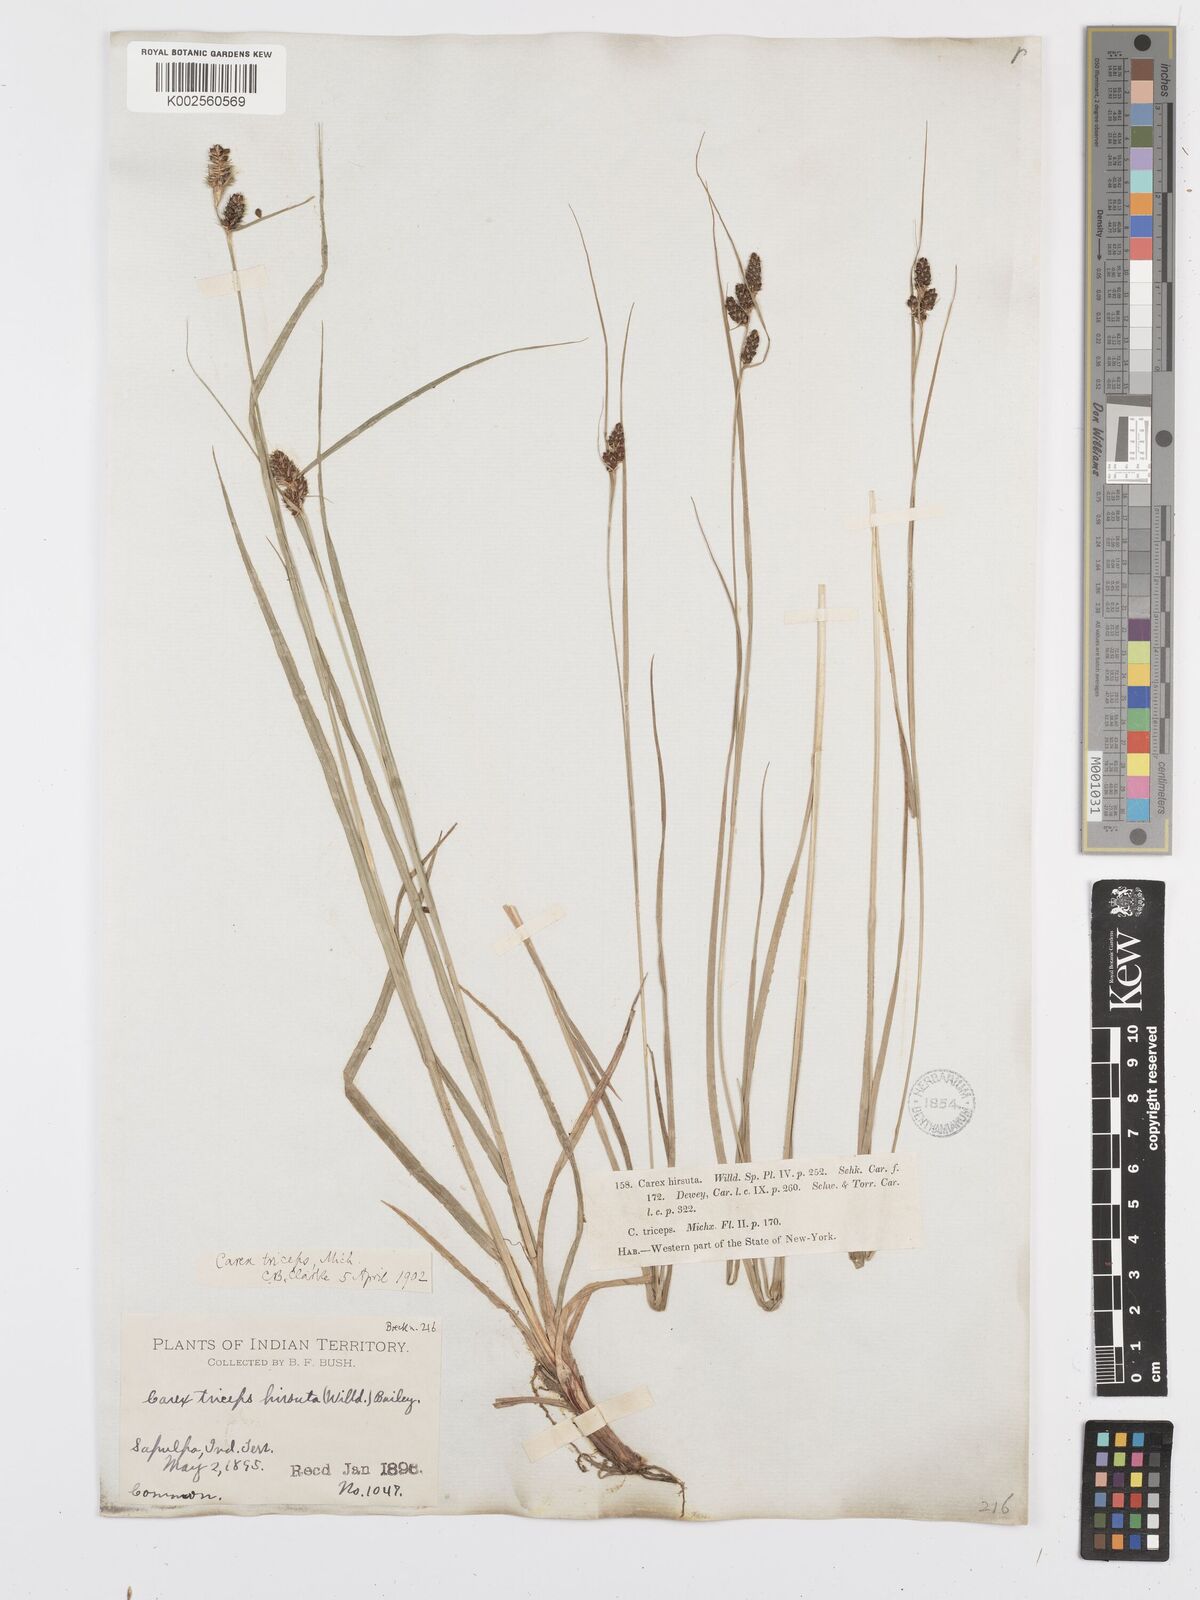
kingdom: Plantae
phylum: Tracheophyta
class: Liliopsida
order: Poales
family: Cyperaceae
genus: Carex
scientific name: Carex complanata
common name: Hirsute sedge
